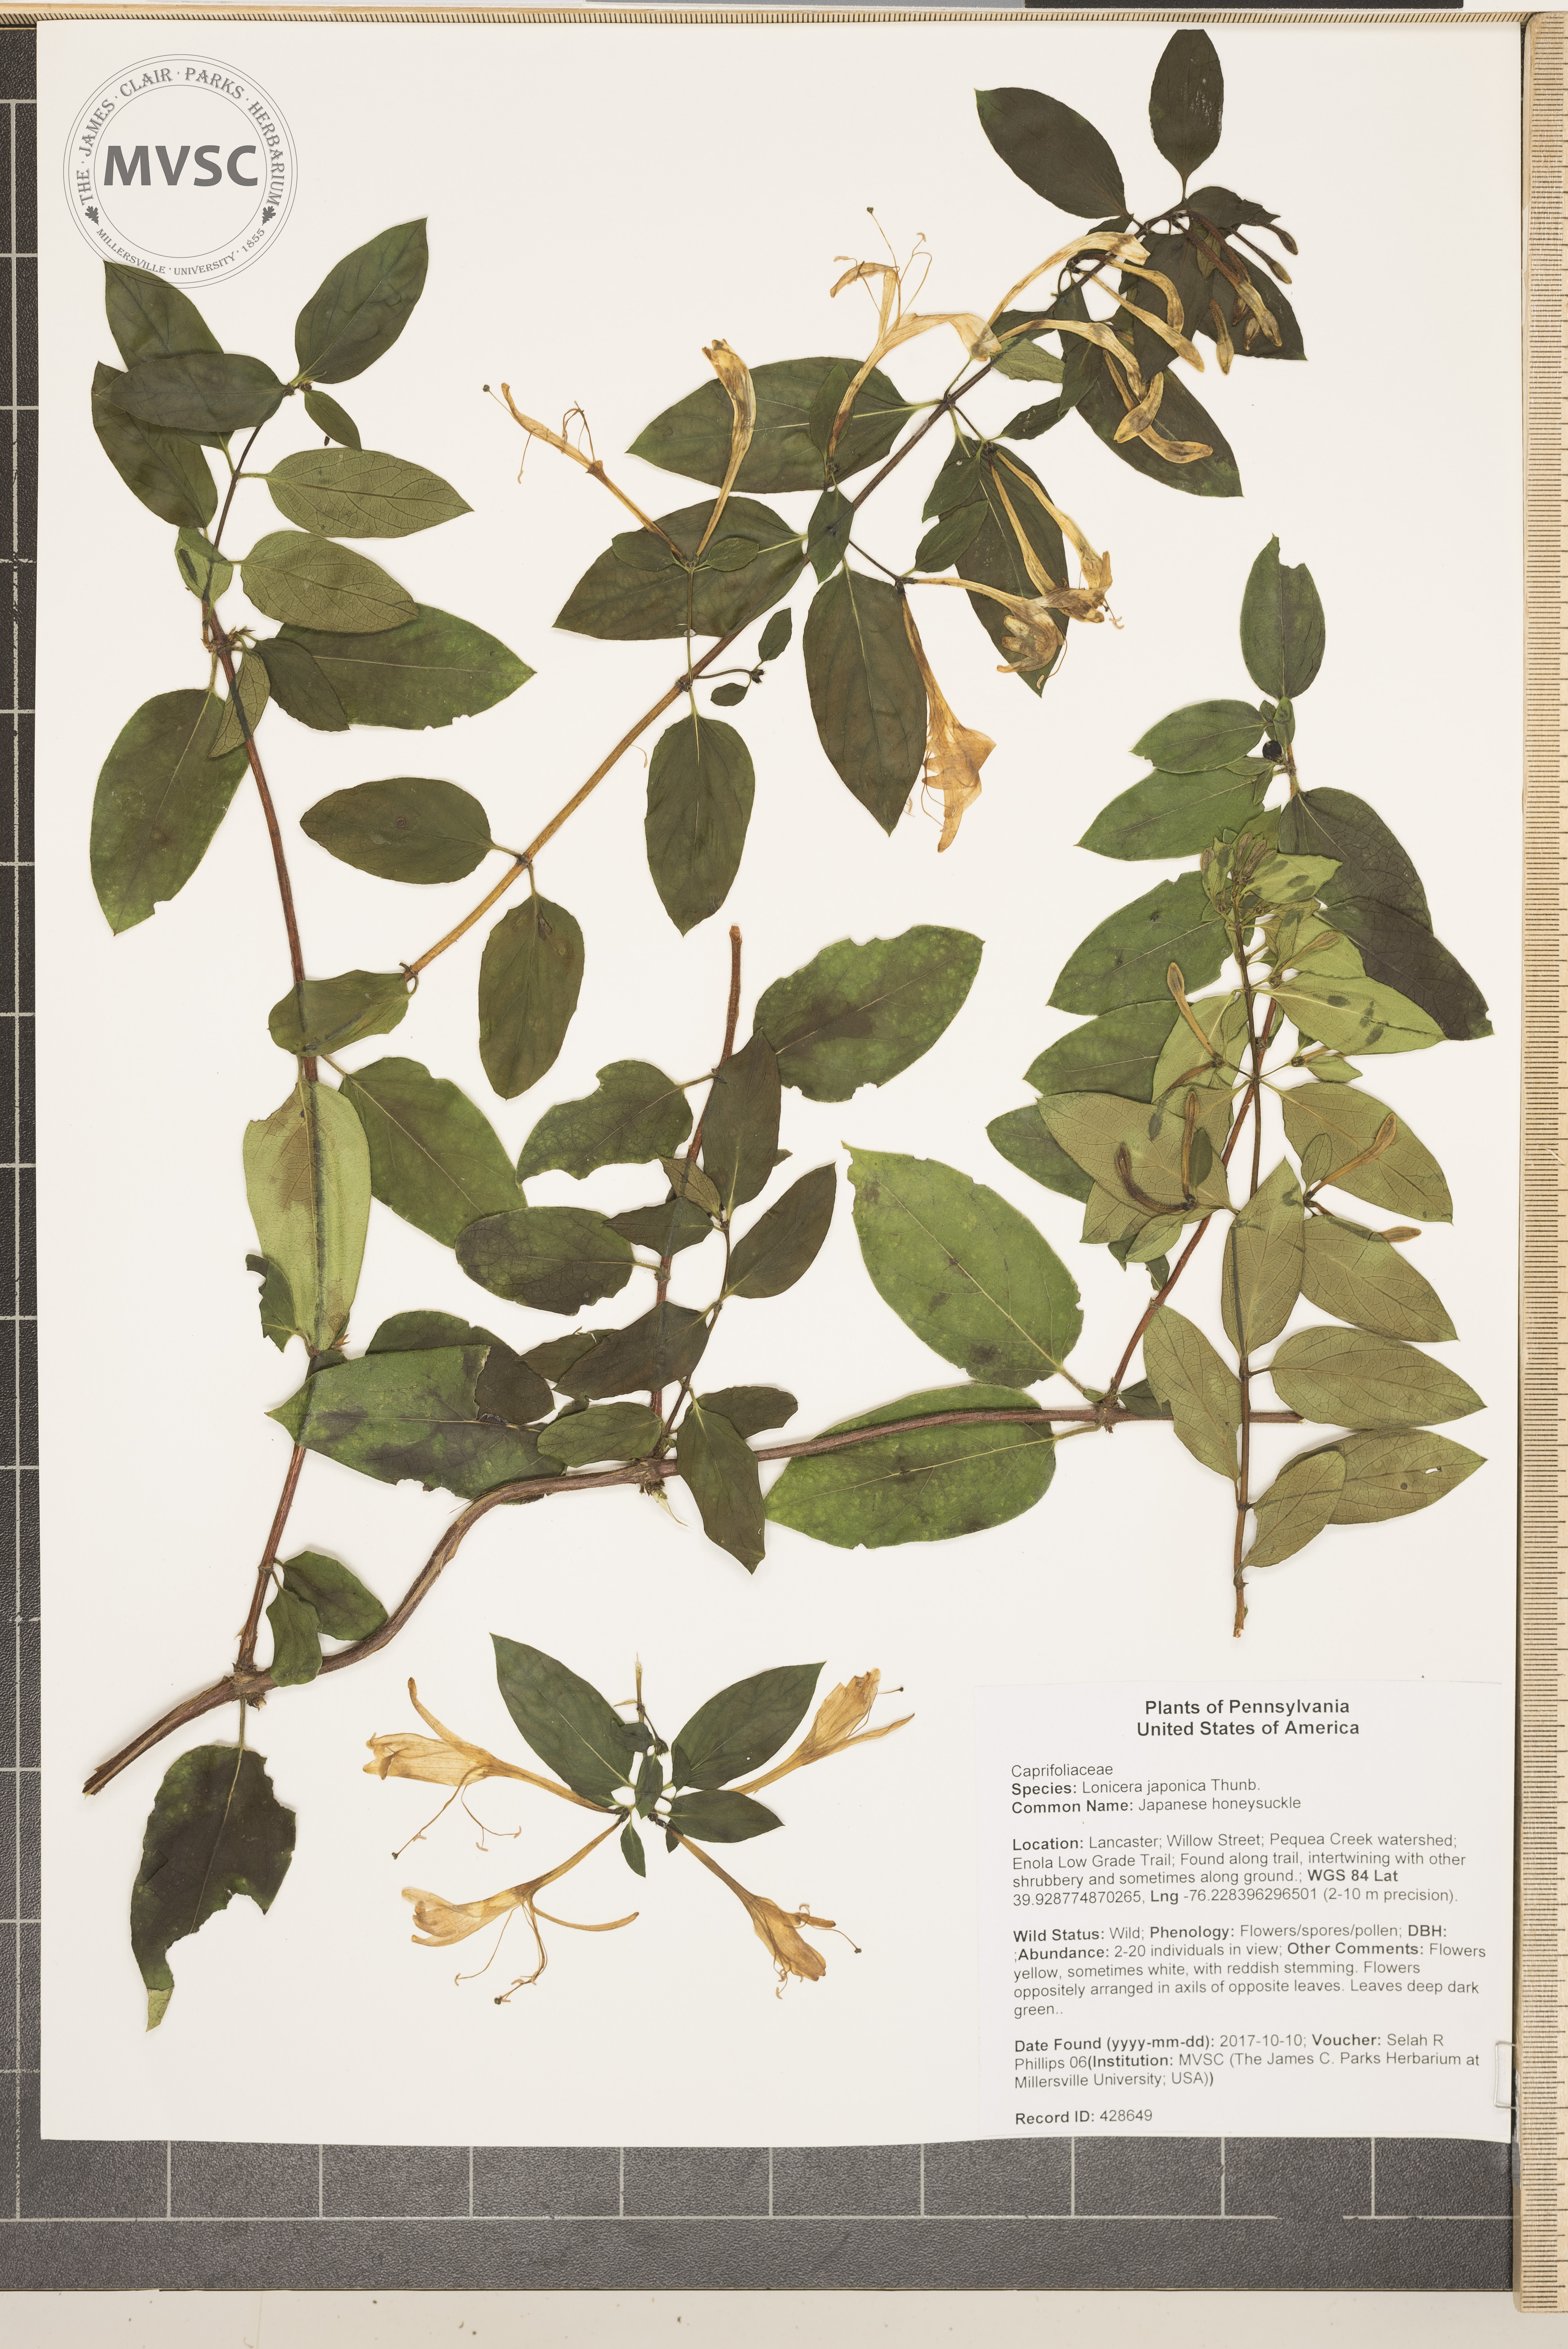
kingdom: Plantae
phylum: Tracheophyta
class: Magnoliopsida
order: Dipsacales
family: Caprifoliaceae
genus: Lonicera
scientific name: Lonicera japonica
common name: Japanese honeysuckle
